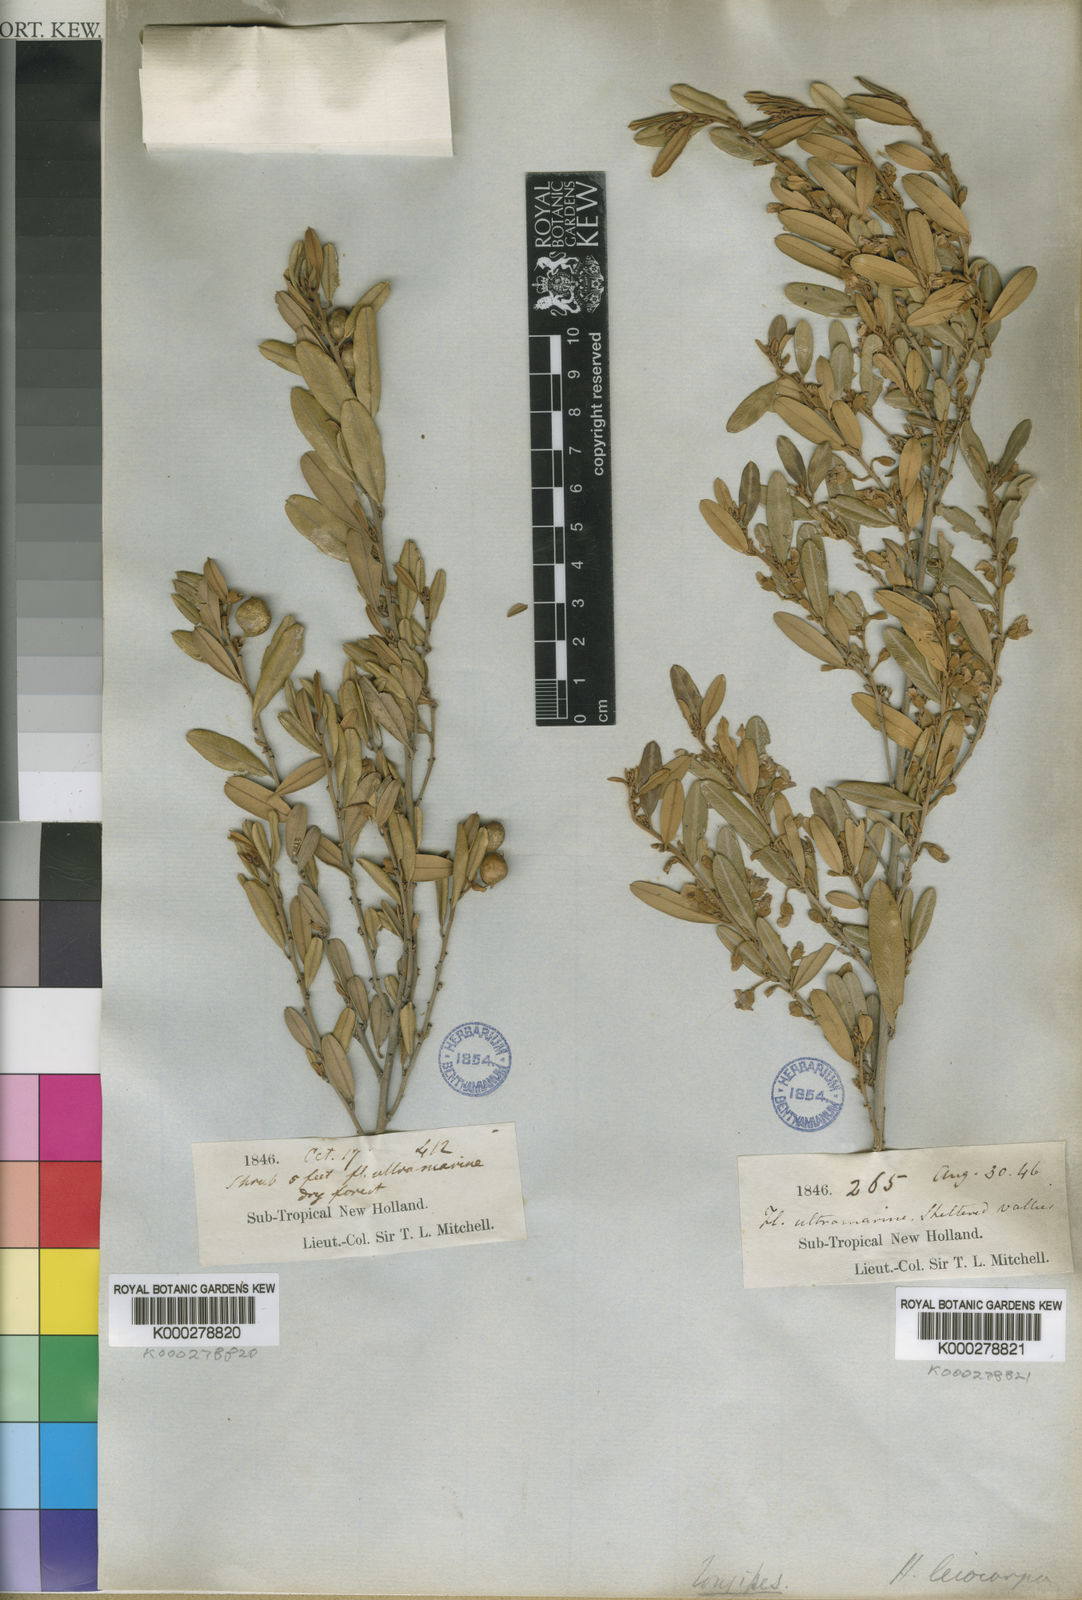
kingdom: Plantae
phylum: Tracheophyta
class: Magnoliopsida
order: Fabales
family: Fabaceae
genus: Hovea
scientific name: Hovea longipes
